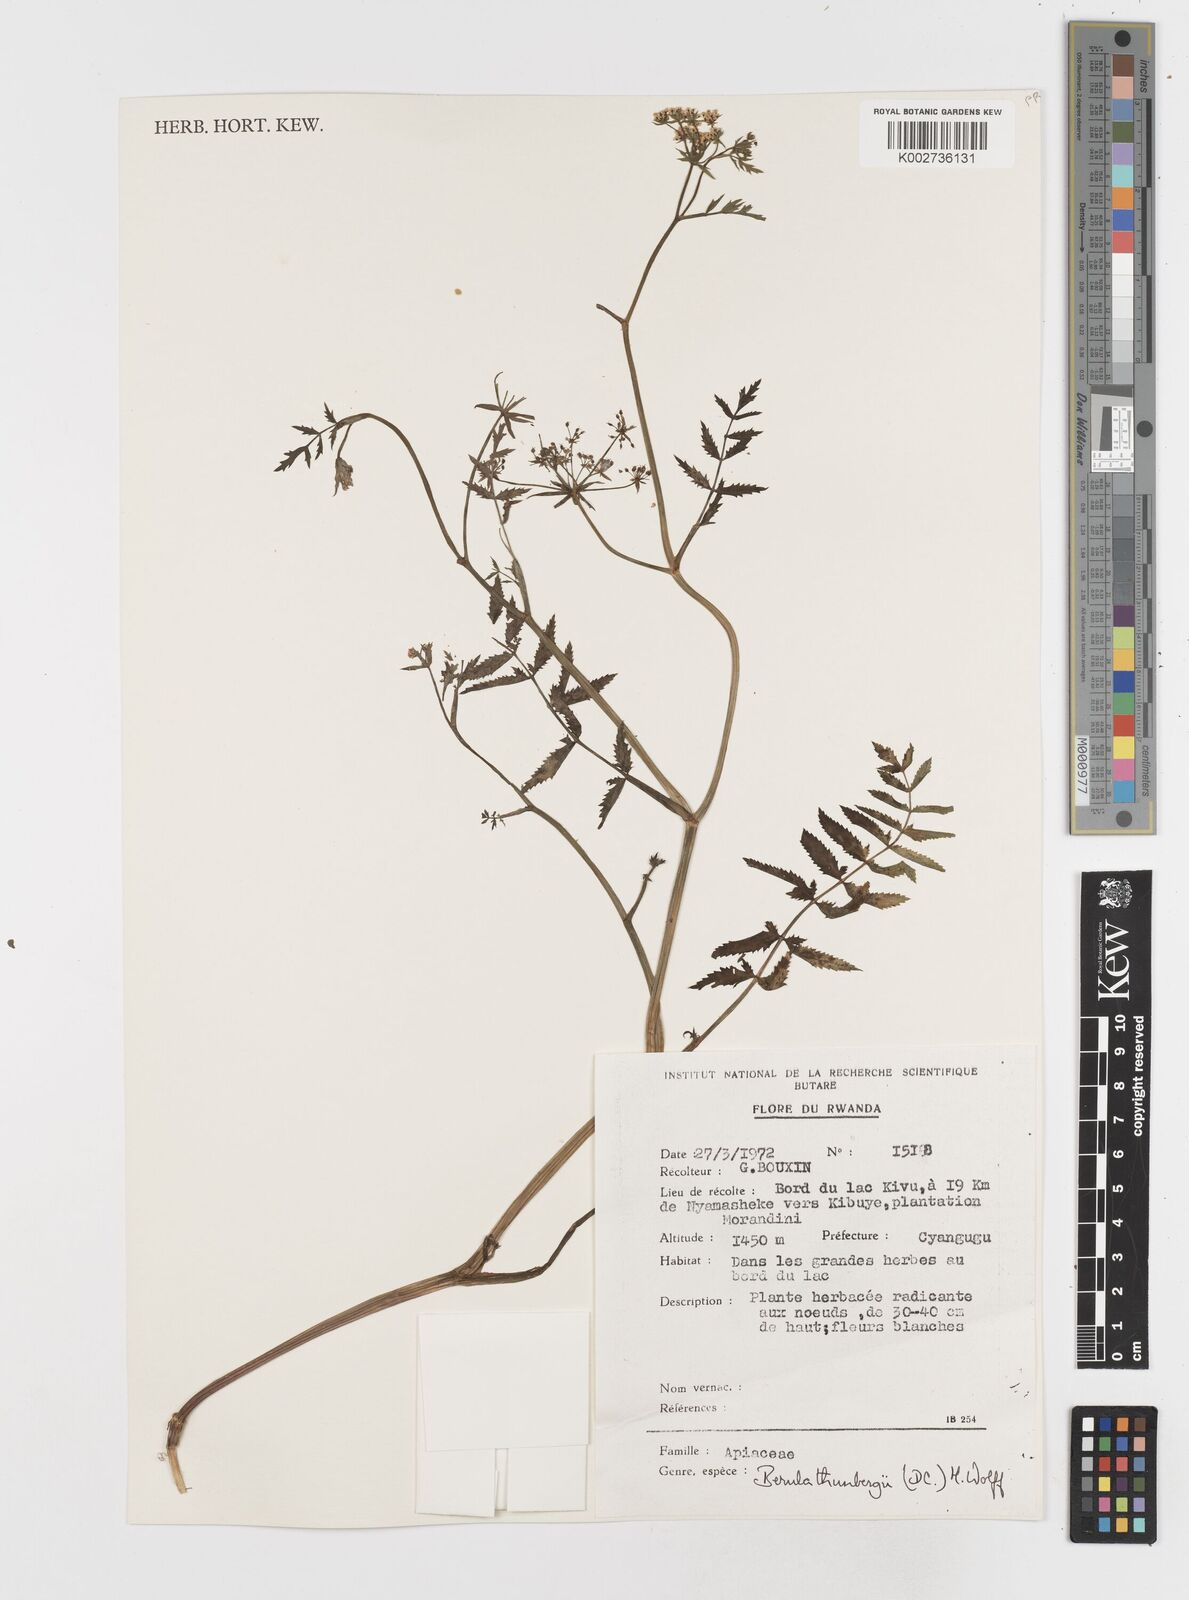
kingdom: Plantae
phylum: Tracheophyta
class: Magnoliopsida
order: Apiales
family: Apiaceae
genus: Berula
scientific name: Berula erecta
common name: Lesser water-parsnip
